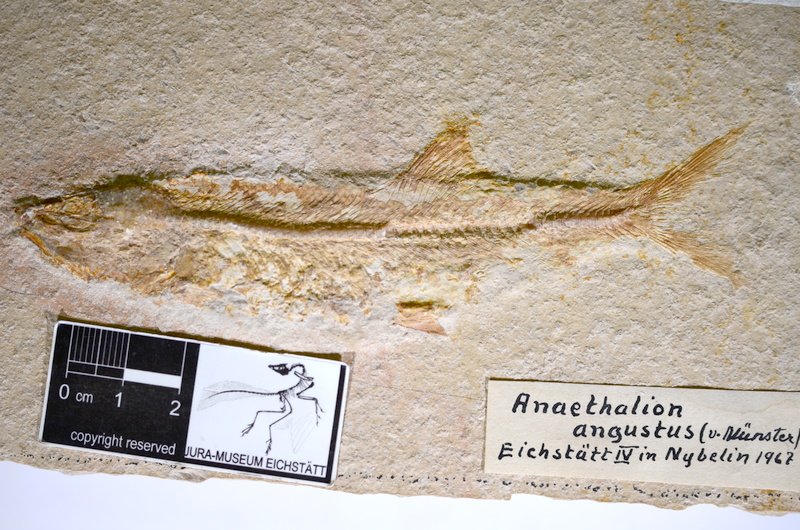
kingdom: Animalia
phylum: Chordata
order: Elopiformes
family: Anaethalionidae
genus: Anaethalion
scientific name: Anaethalion angustus
